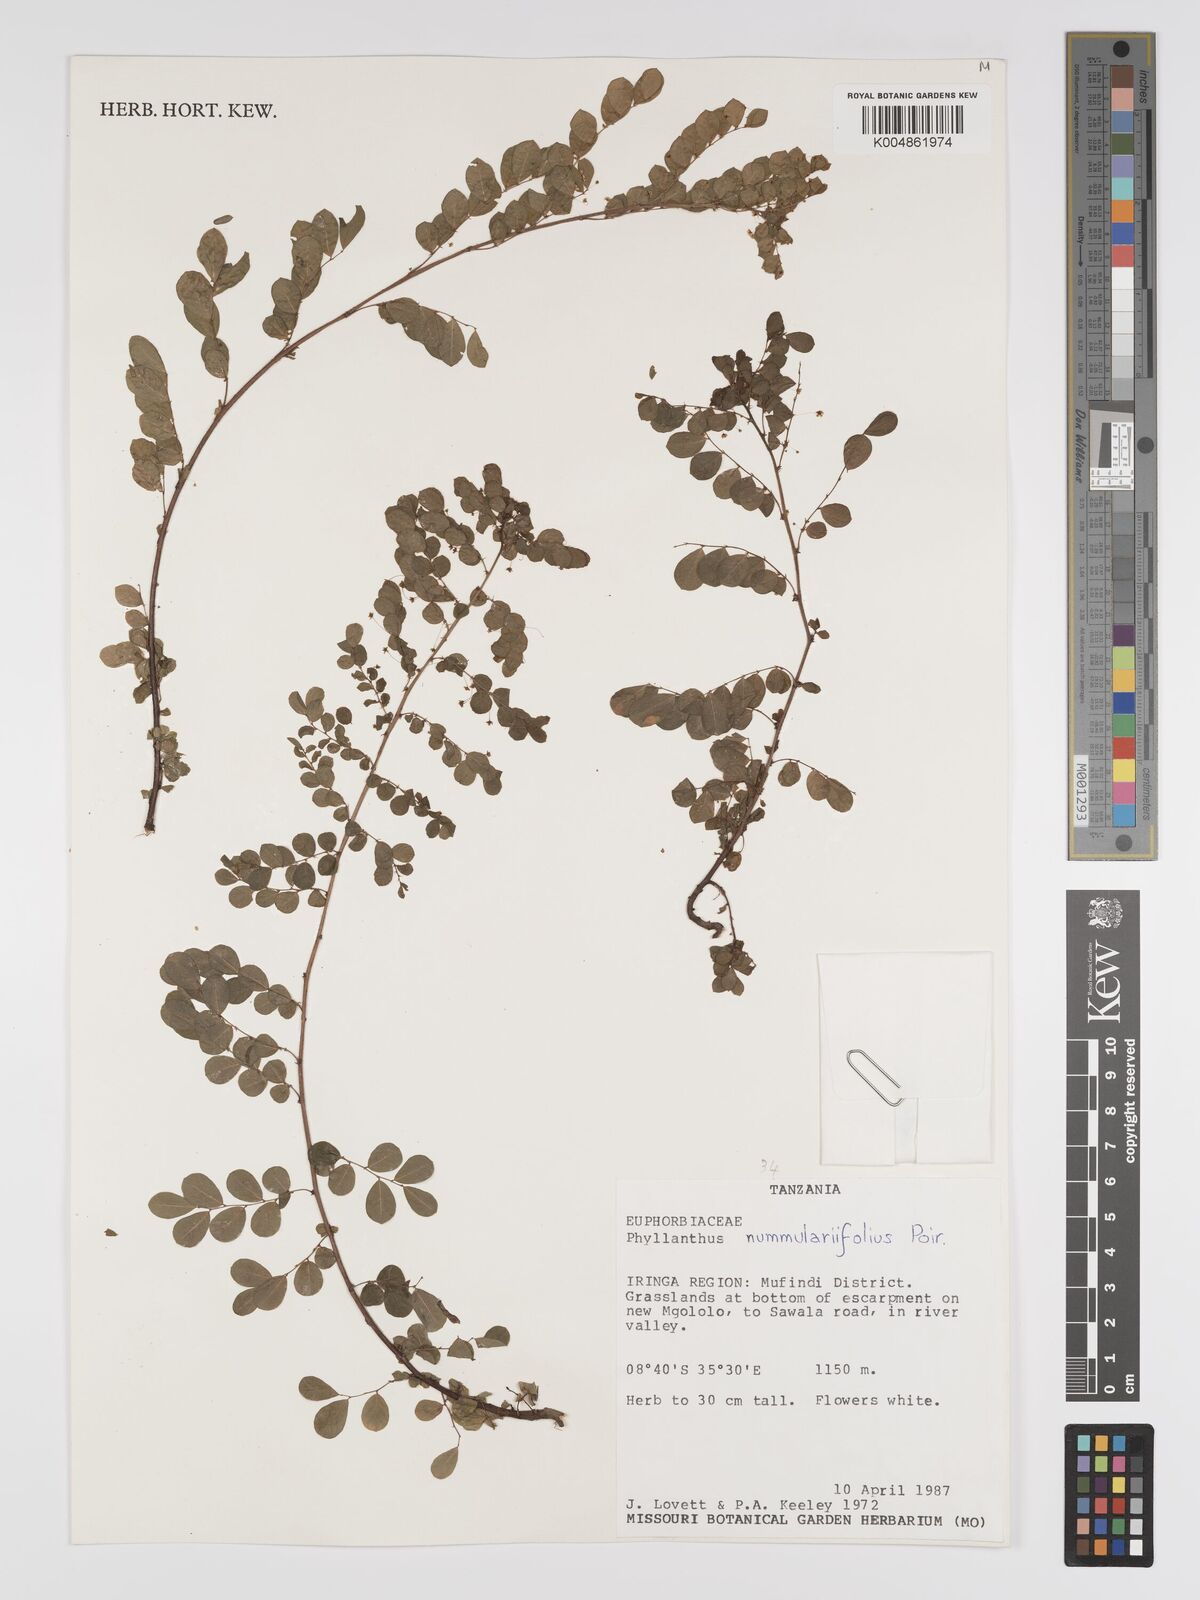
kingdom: Plantae
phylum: Tracheophyta
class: Magnoliopsida
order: Malpighiales
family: Phyllanthaceae
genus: Phyllanthus
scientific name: Phyllanthus nummulariifolius
